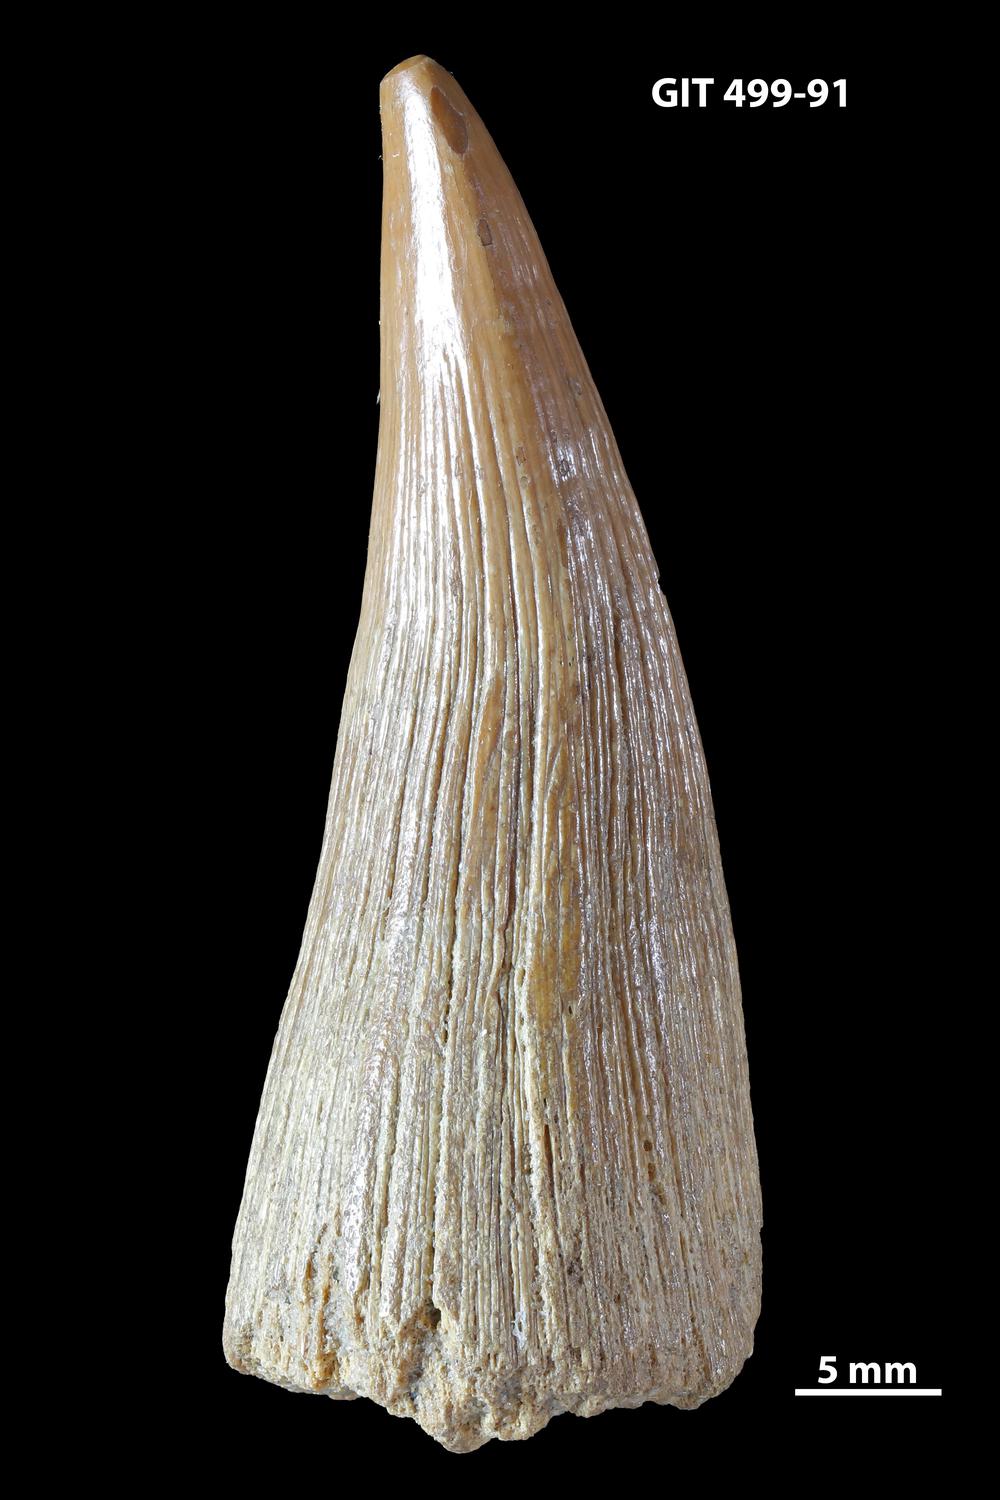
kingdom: Animalia
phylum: Chordata
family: Holoptychiidae
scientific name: Holoptychiidae
